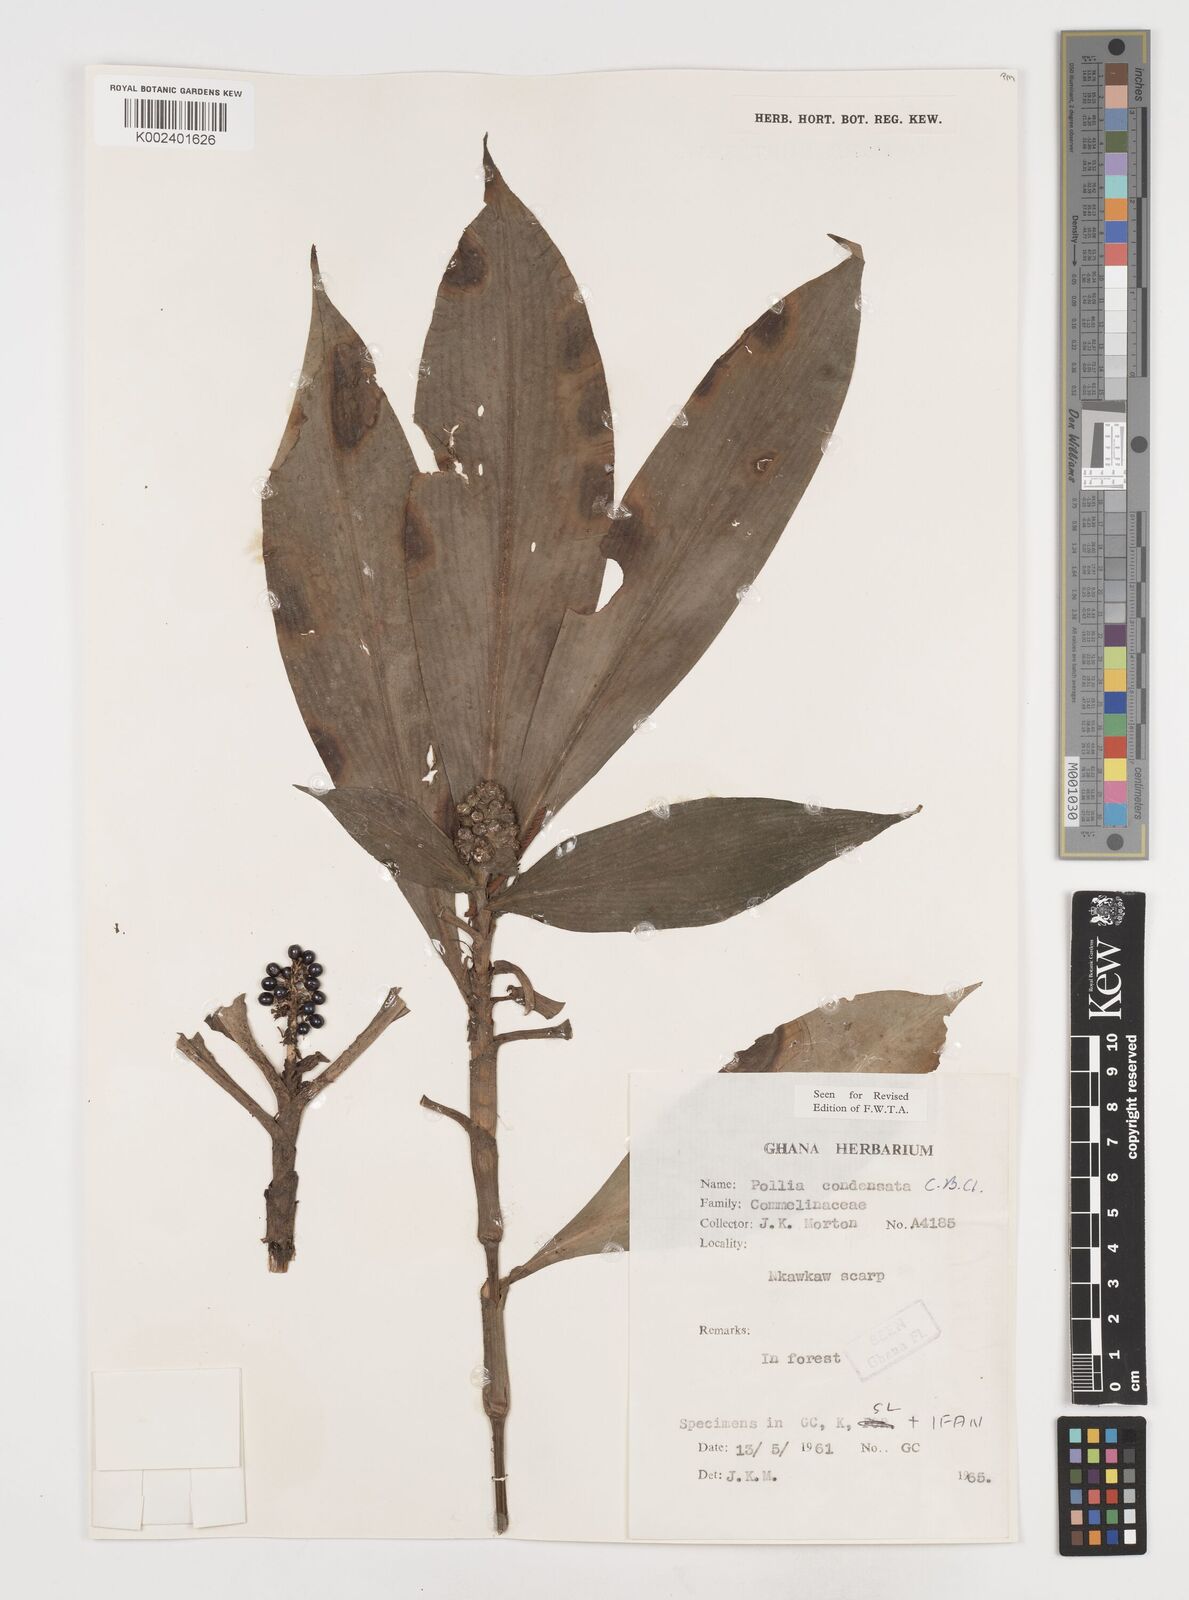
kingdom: Plantae
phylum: Tracheophyta
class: Liliopsida
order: Commelinales
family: Commelinaceae
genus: Pollia
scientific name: Pollia condensata
